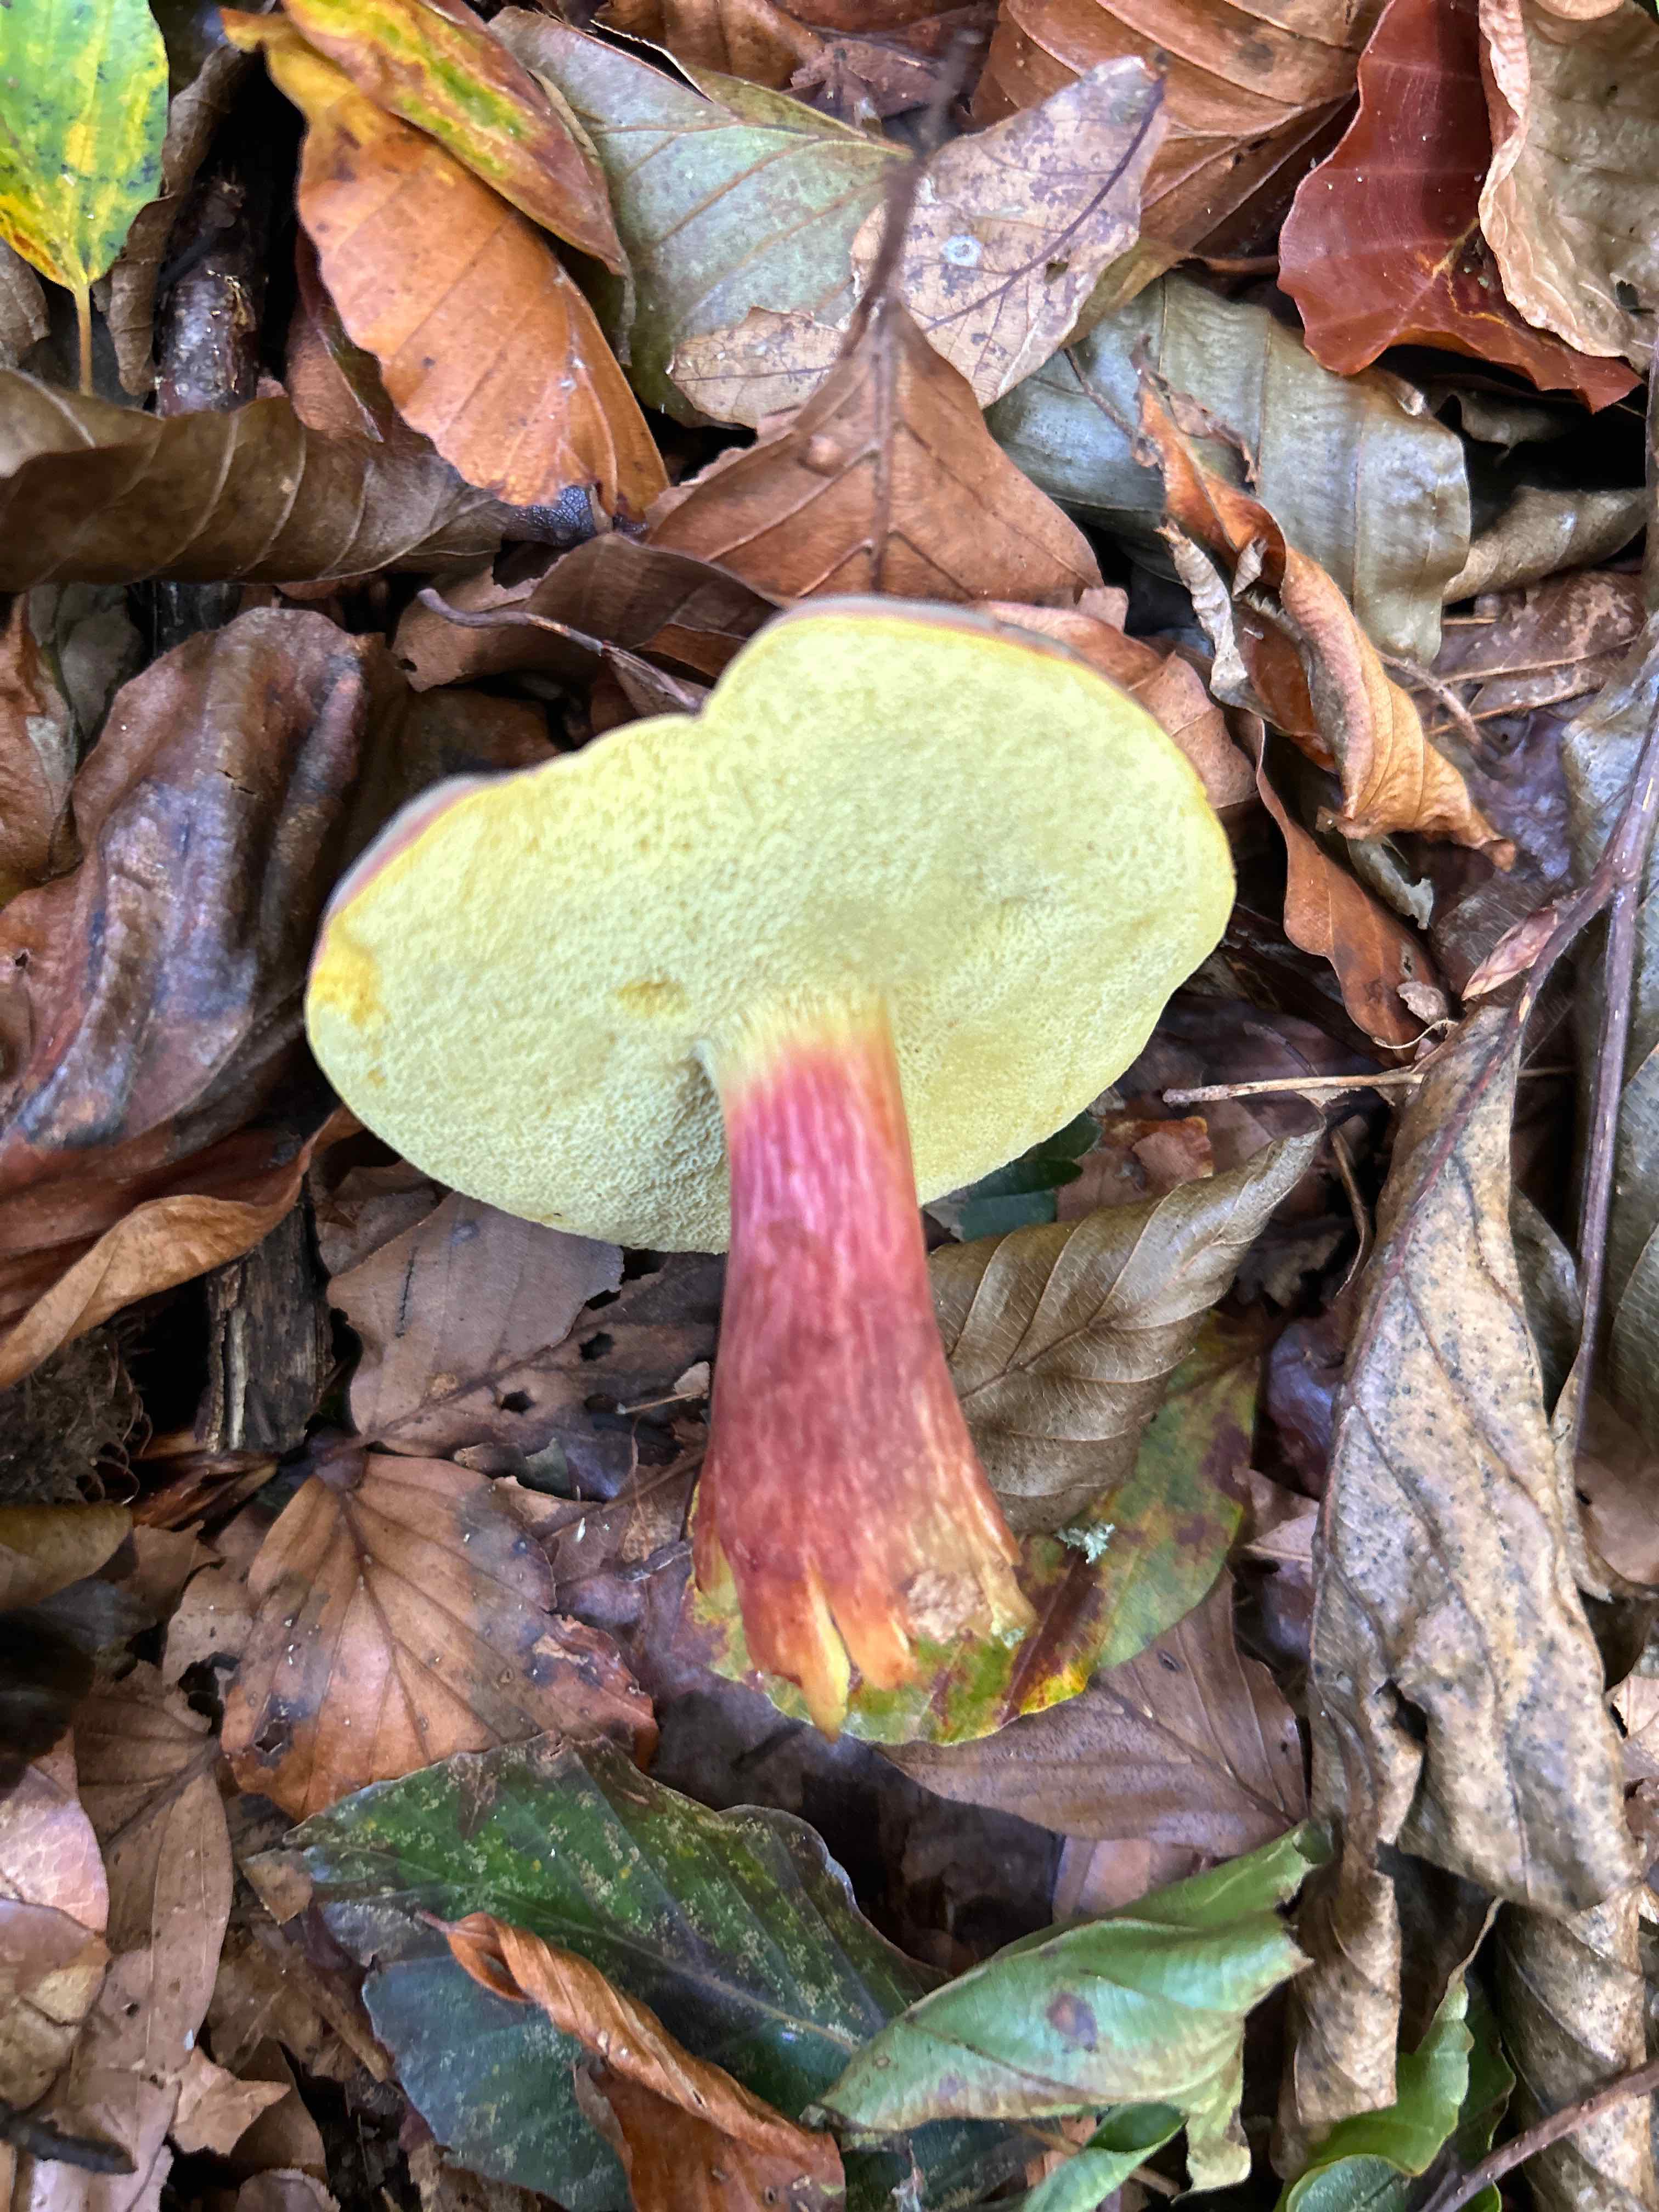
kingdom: Fungi
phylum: Basidiomycota
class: Agaricomycetes
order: Boletales
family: Boletaceae
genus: Xerocomellus
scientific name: Xerocomellus pruinatus
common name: dugget rørhat
